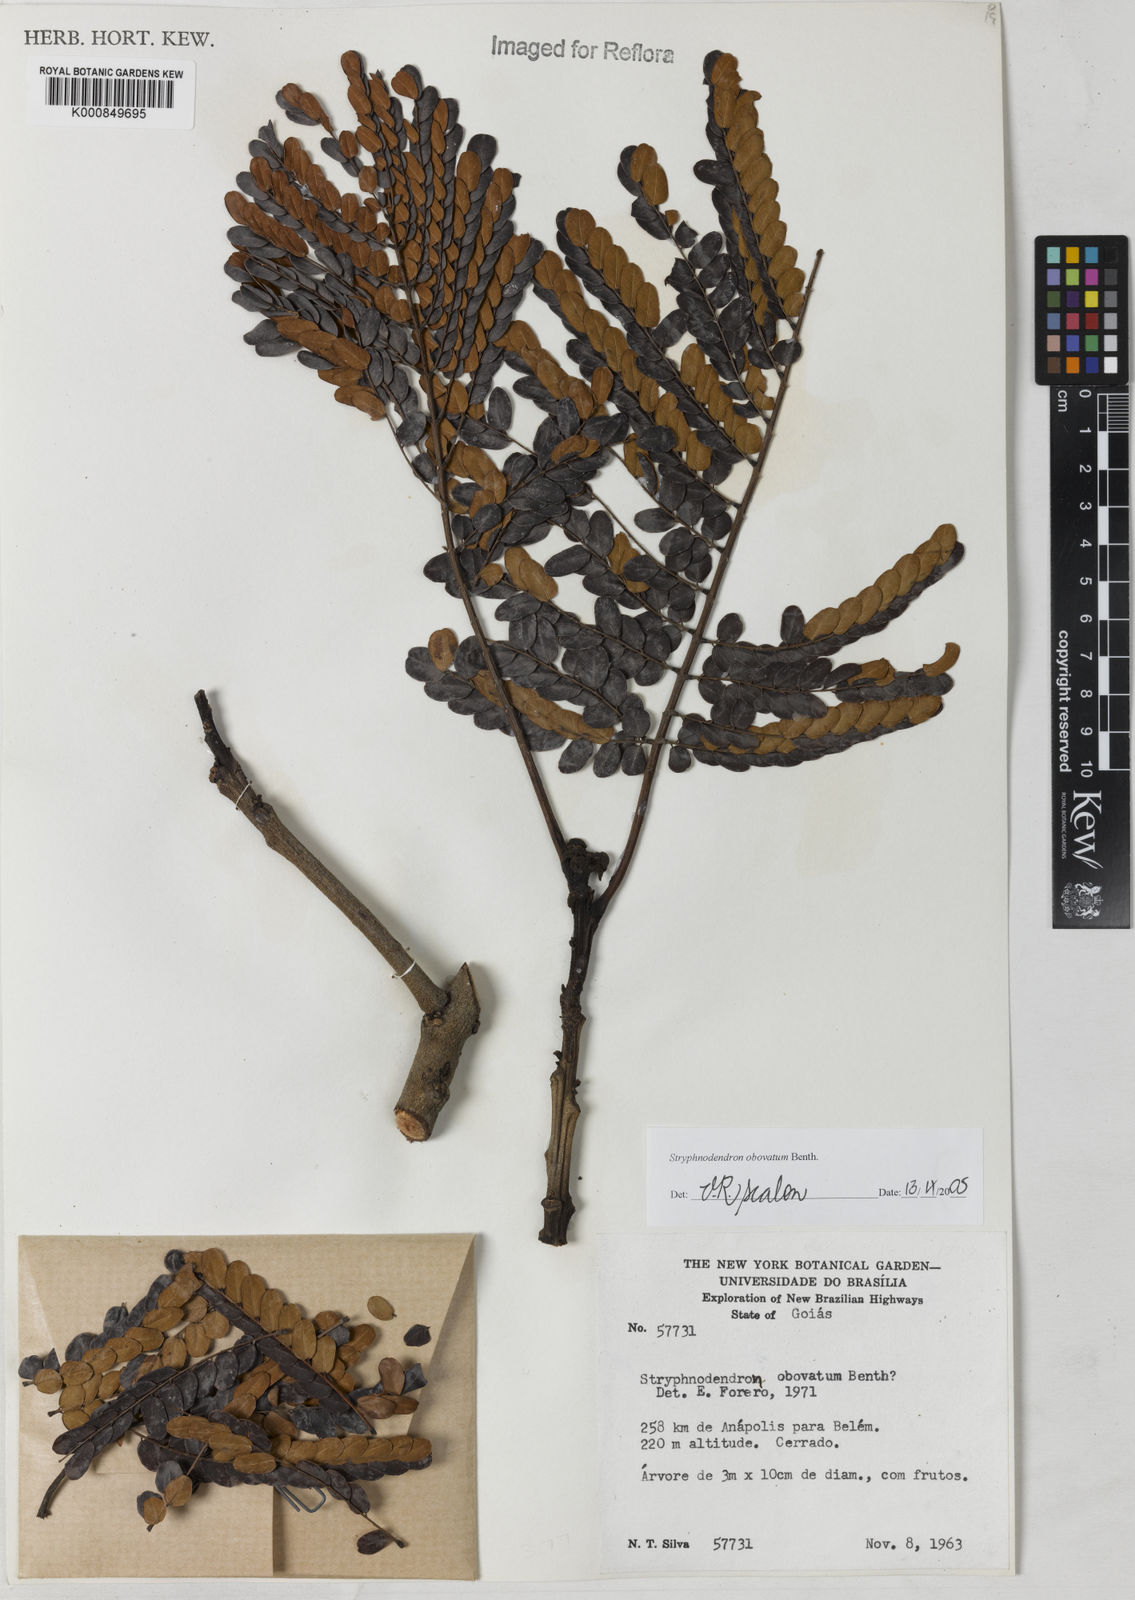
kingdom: Plantae
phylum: Tracheophyta
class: Magnoliopsida
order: Fabales
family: Fabaceae
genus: Stryphnodendron
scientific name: Stryphnodendron rotundifolium
